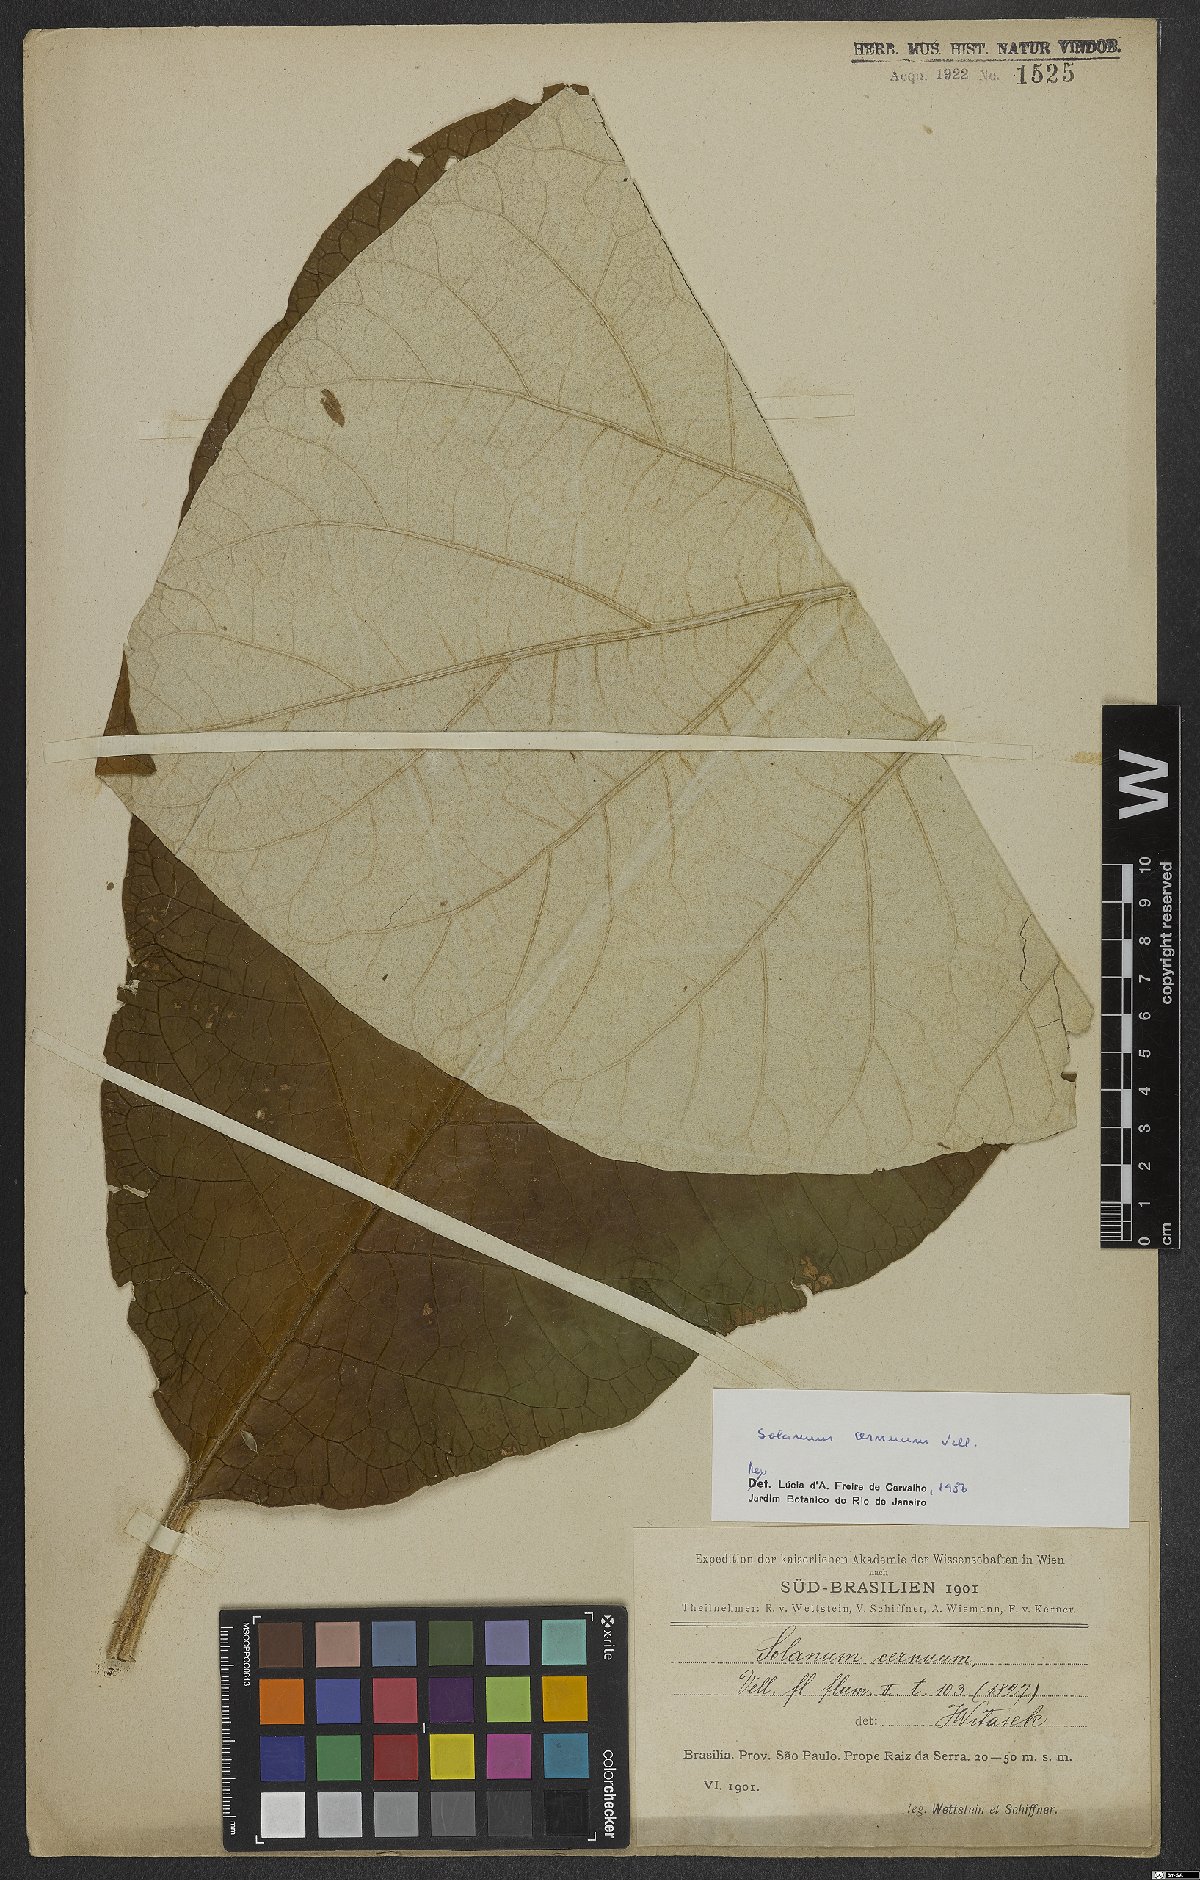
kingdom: Plantae
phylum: Tracheophyta
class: Magnoliopsida
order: Solanales
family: Solanaceae
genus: Solanum
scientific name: Solanum cernuum
